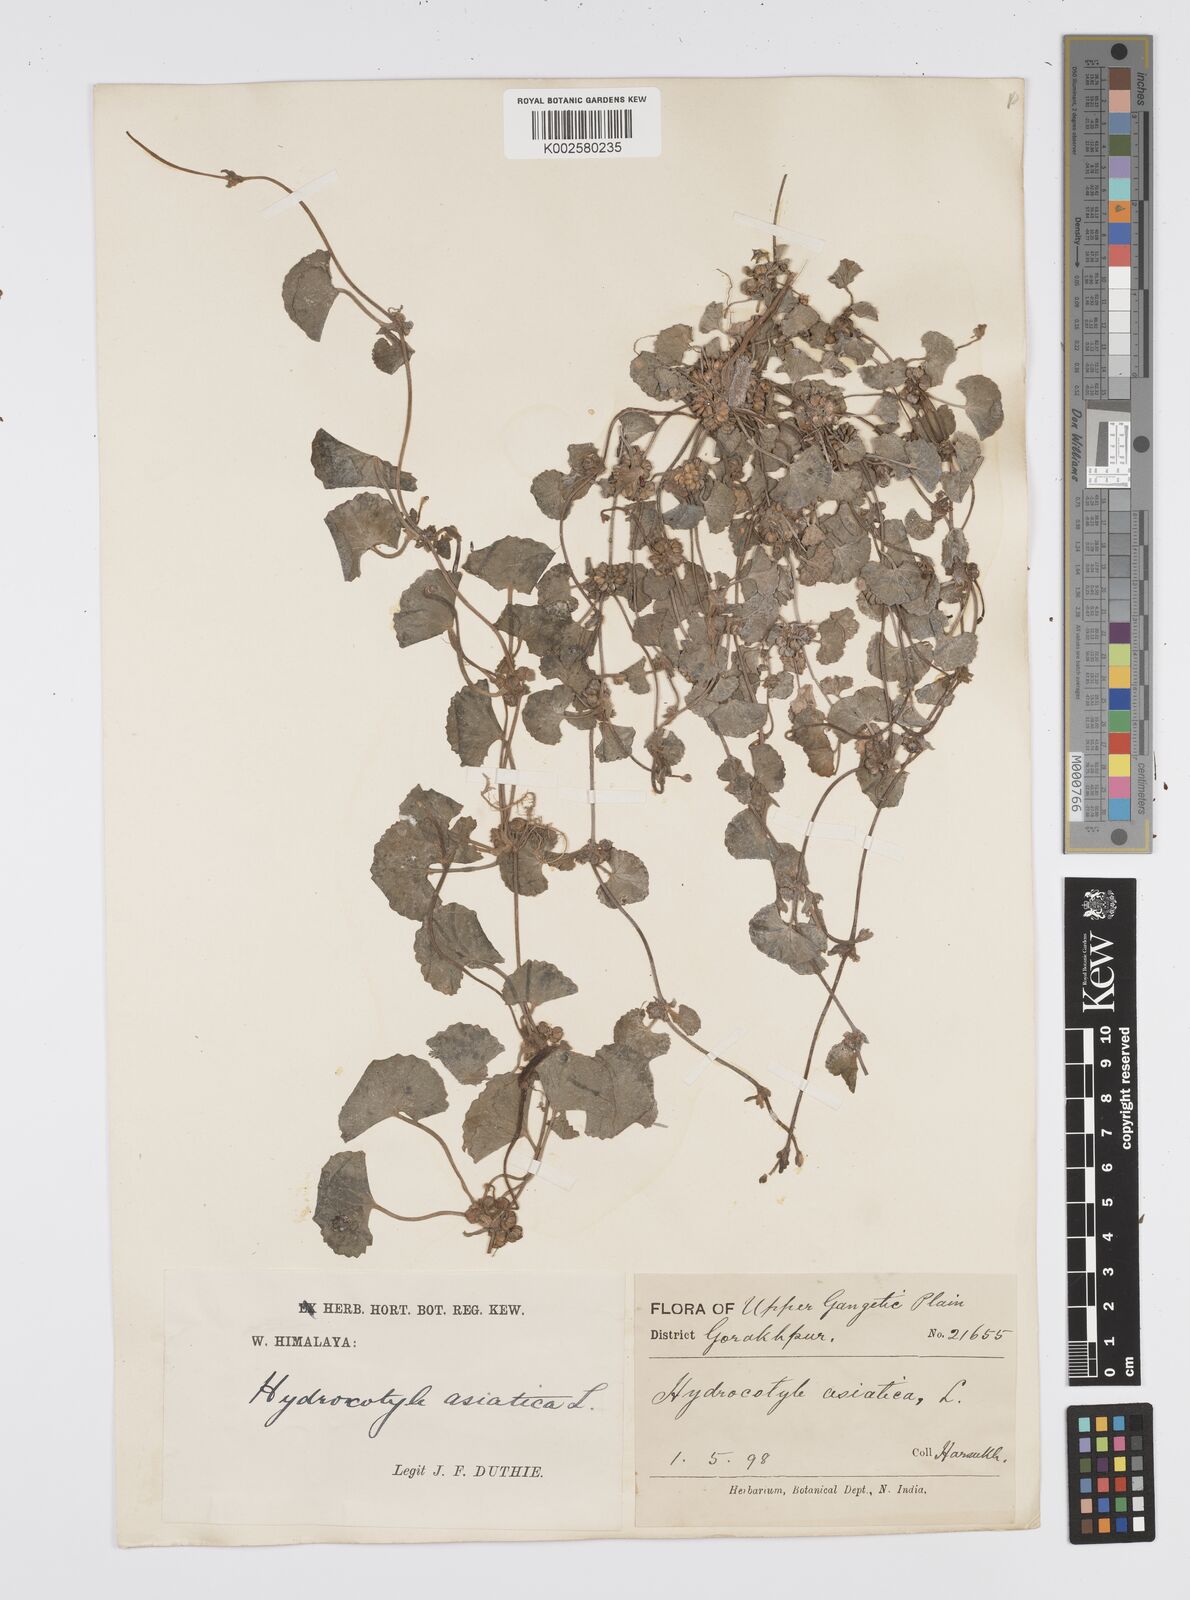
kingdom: Plantae
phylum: Tracheophyta
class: Magnoliopsida
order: Apiales
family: Apiaceae
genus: Centella
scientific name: Centella asiatica
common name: Spadeleaf
